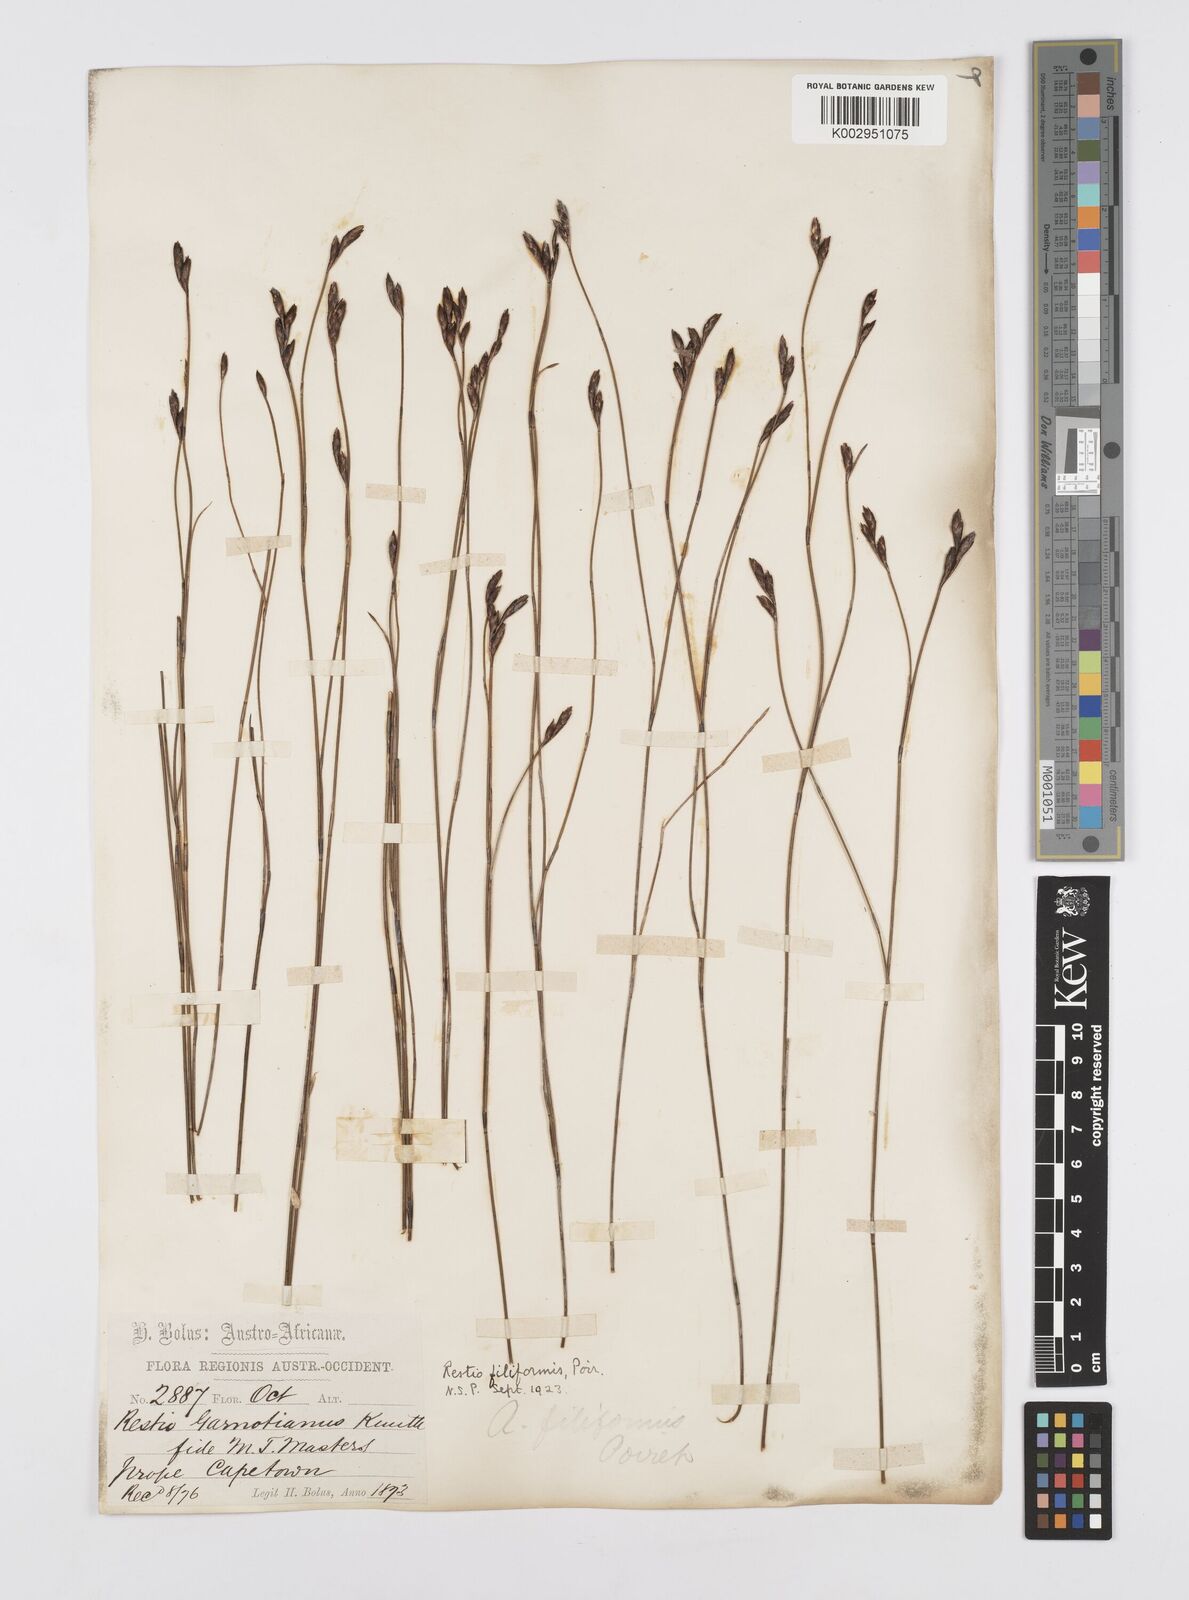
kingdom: Plantae
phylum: Tracheophyta
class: Liliopsida
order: Poales
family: Restionaceae
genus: Restio
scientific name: Restio filiformis
